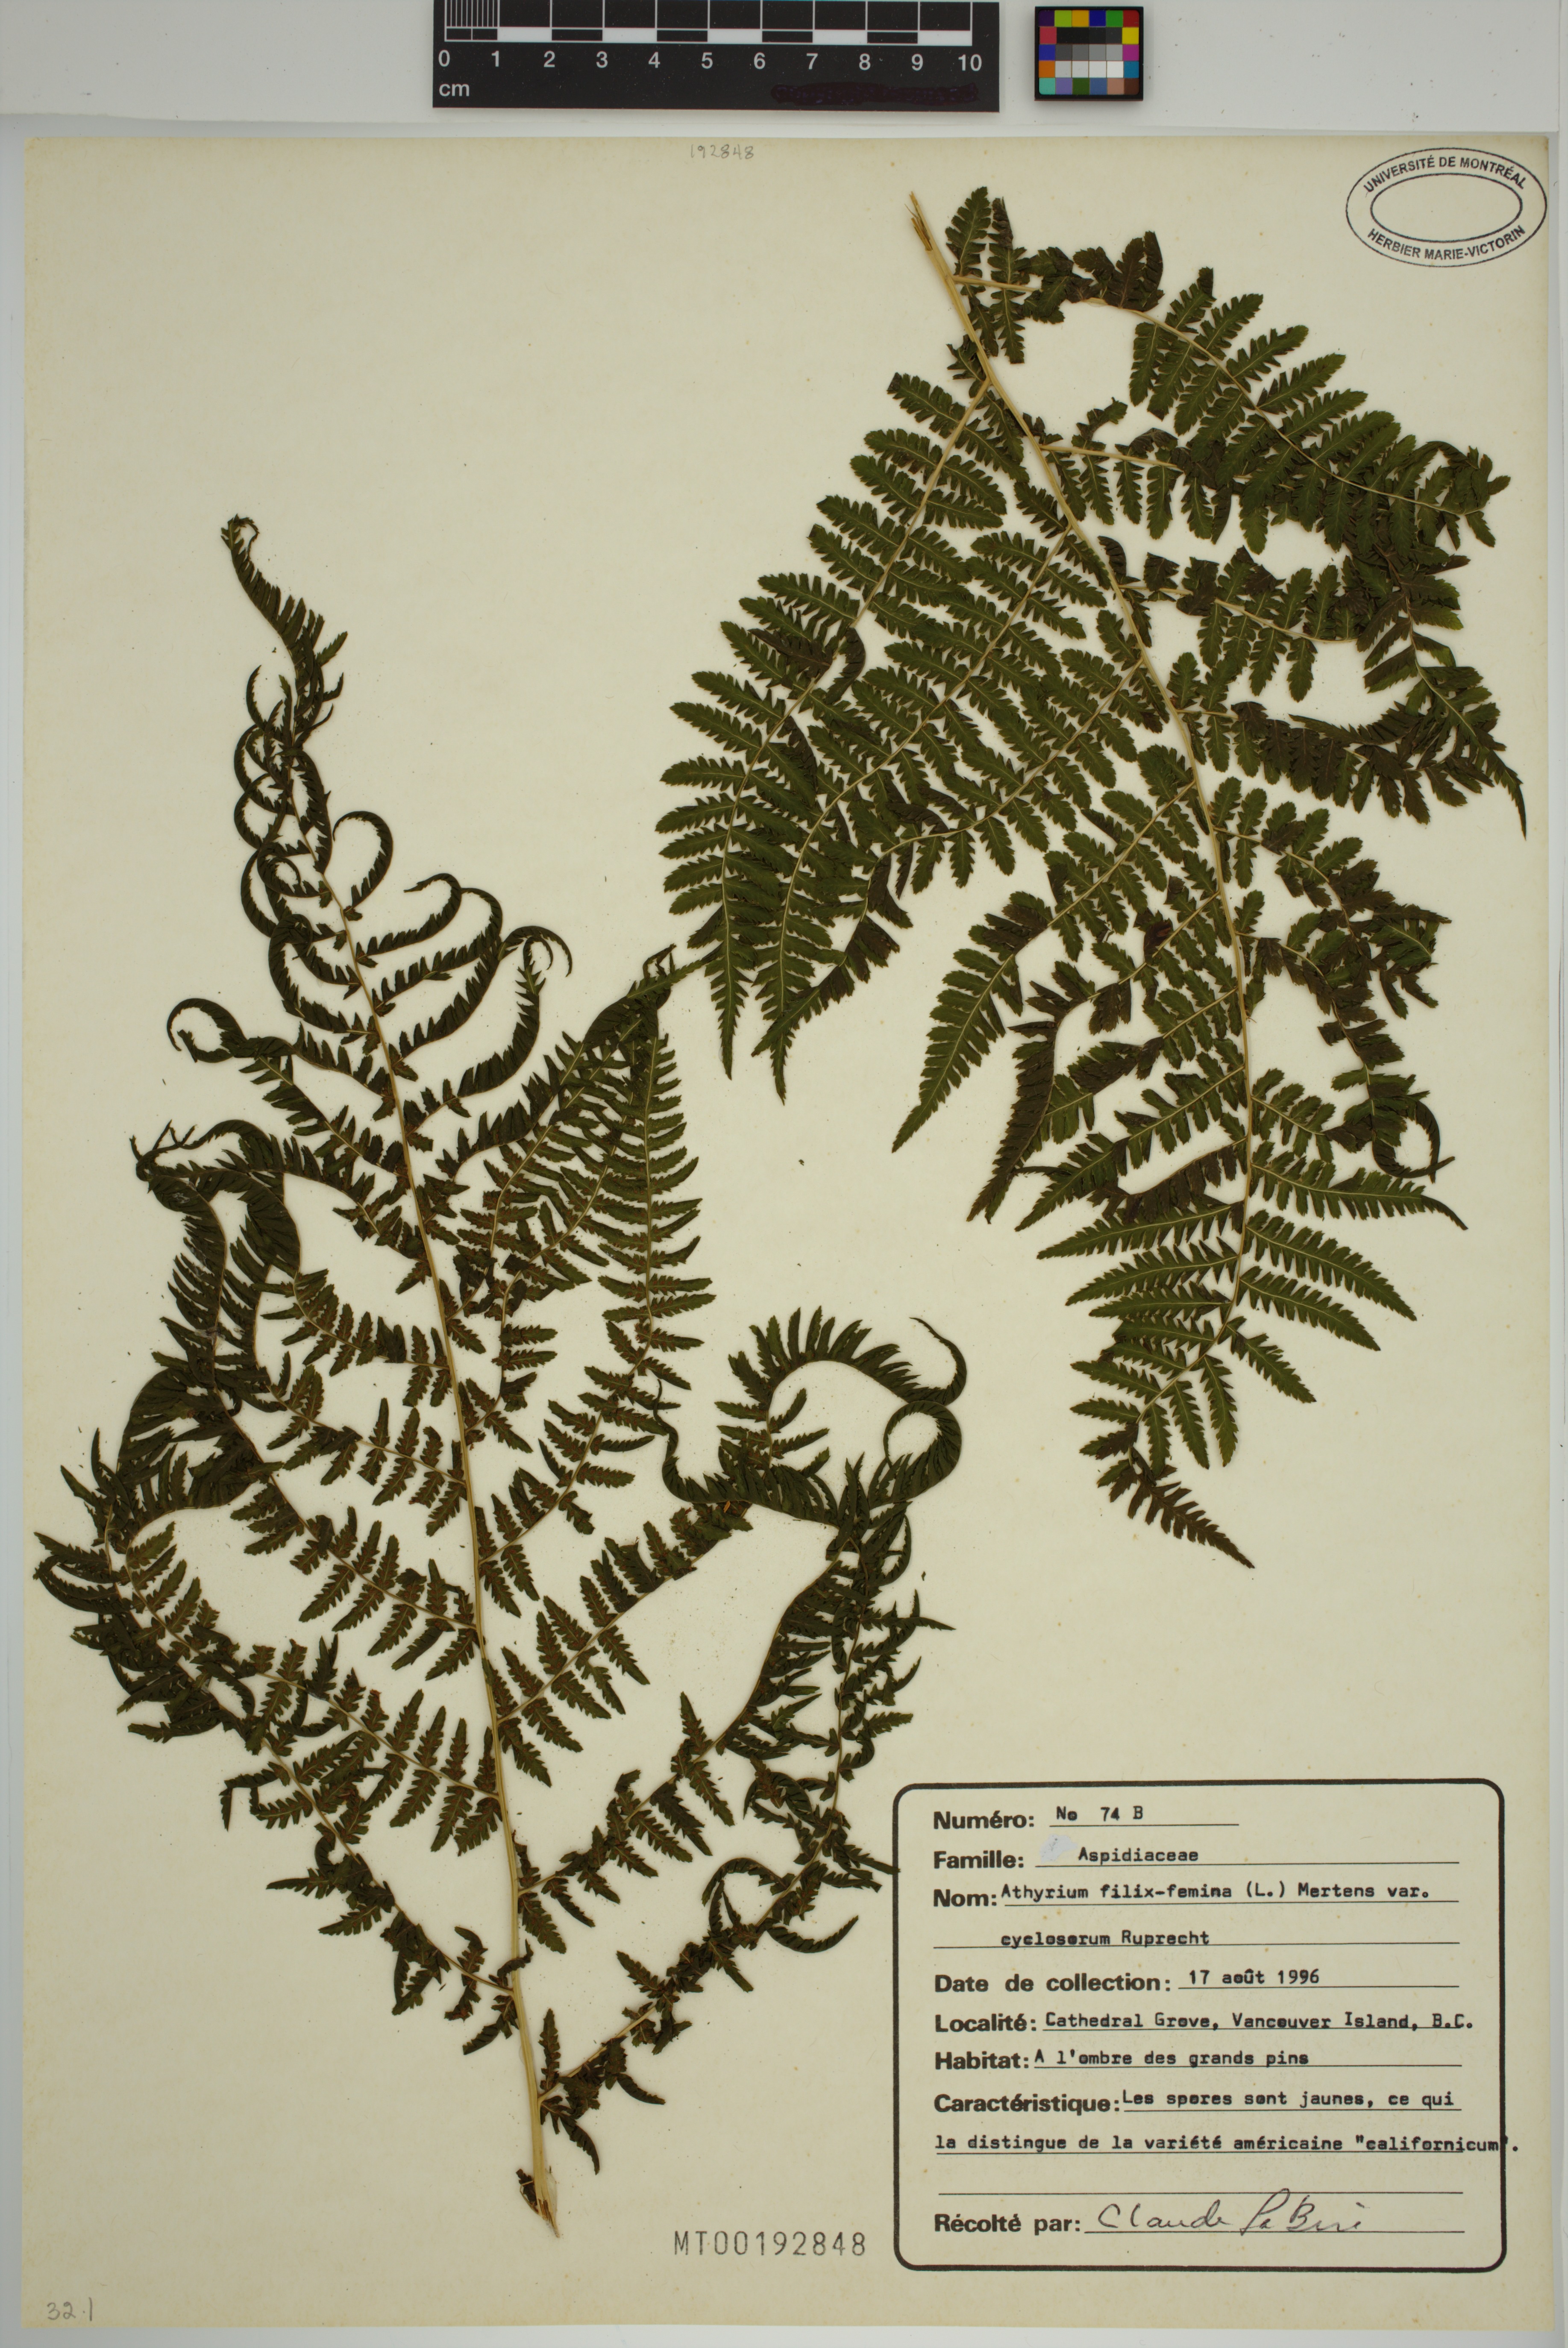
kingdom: Plantae
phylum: Tracheophyta
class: Polypodiopsida
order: Polypodiales
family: Athyriaceae
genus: Athyrium
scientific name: Athyrium cyclosorum
